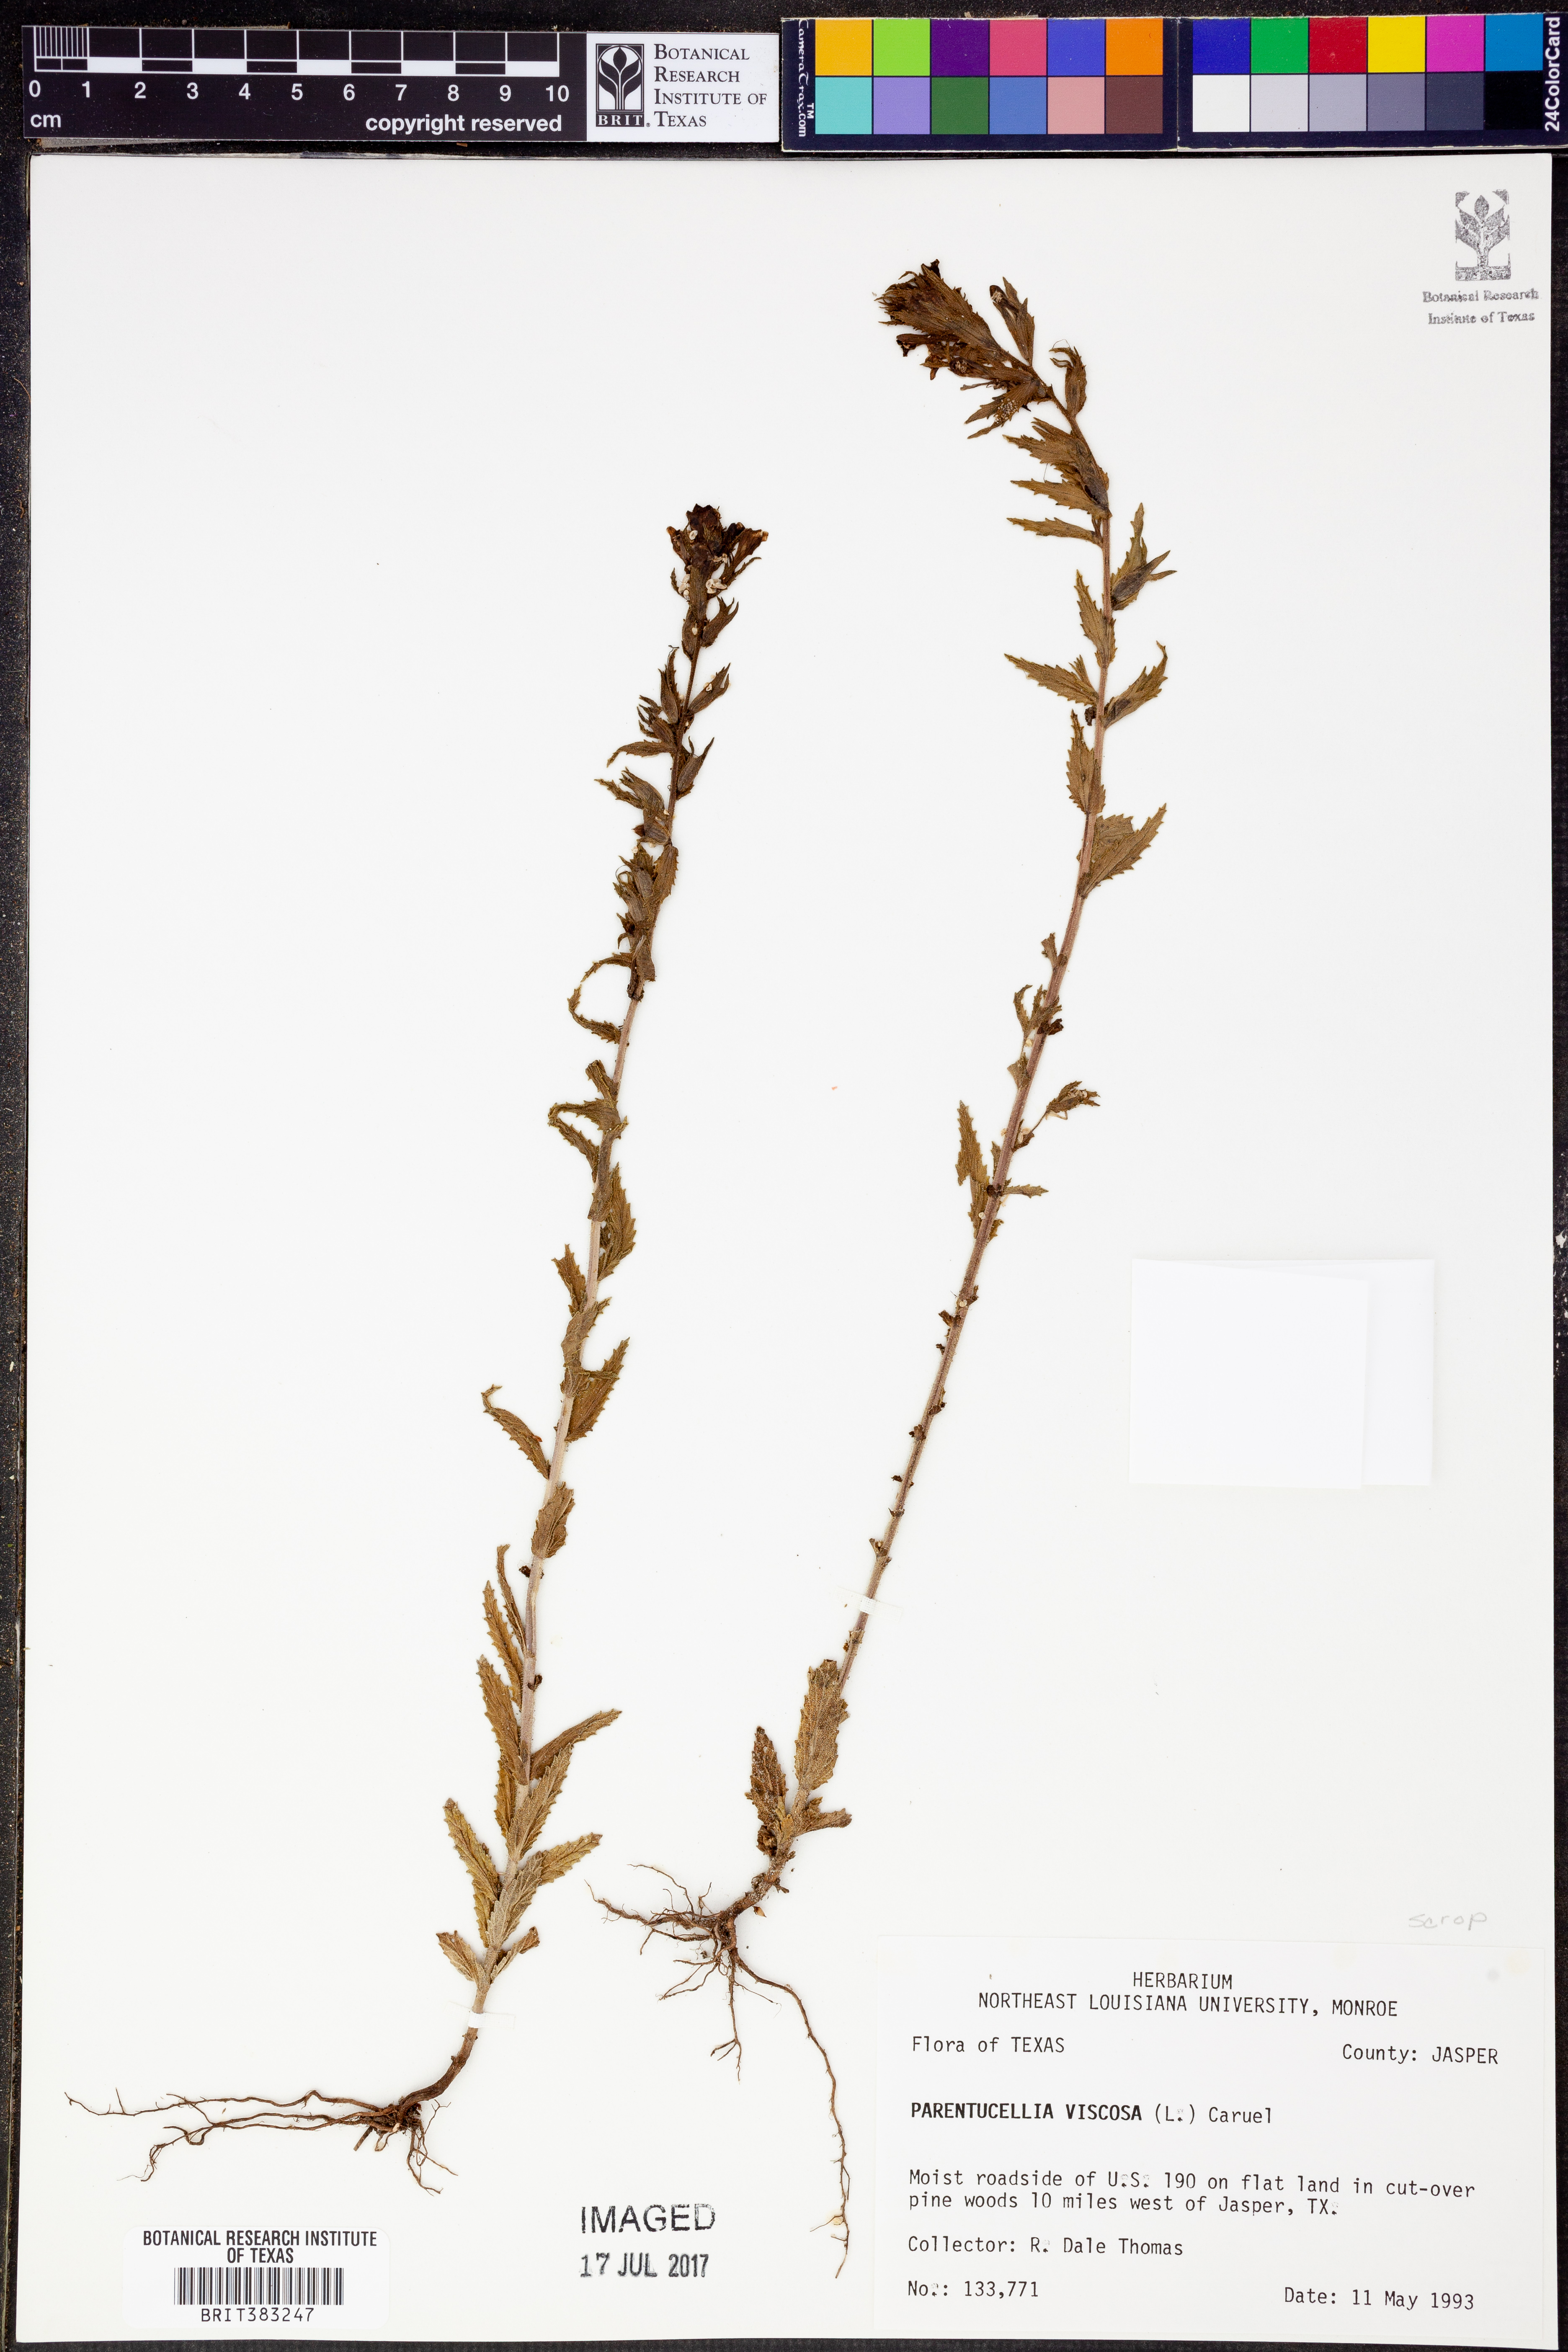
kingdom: Plantae
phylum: Tracheophyta
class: Magnoliopsida
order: Lamiales
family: Orobanchaceae
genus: Bellardia
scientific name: Bellardia viscosa
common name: Sticky parentucellia
